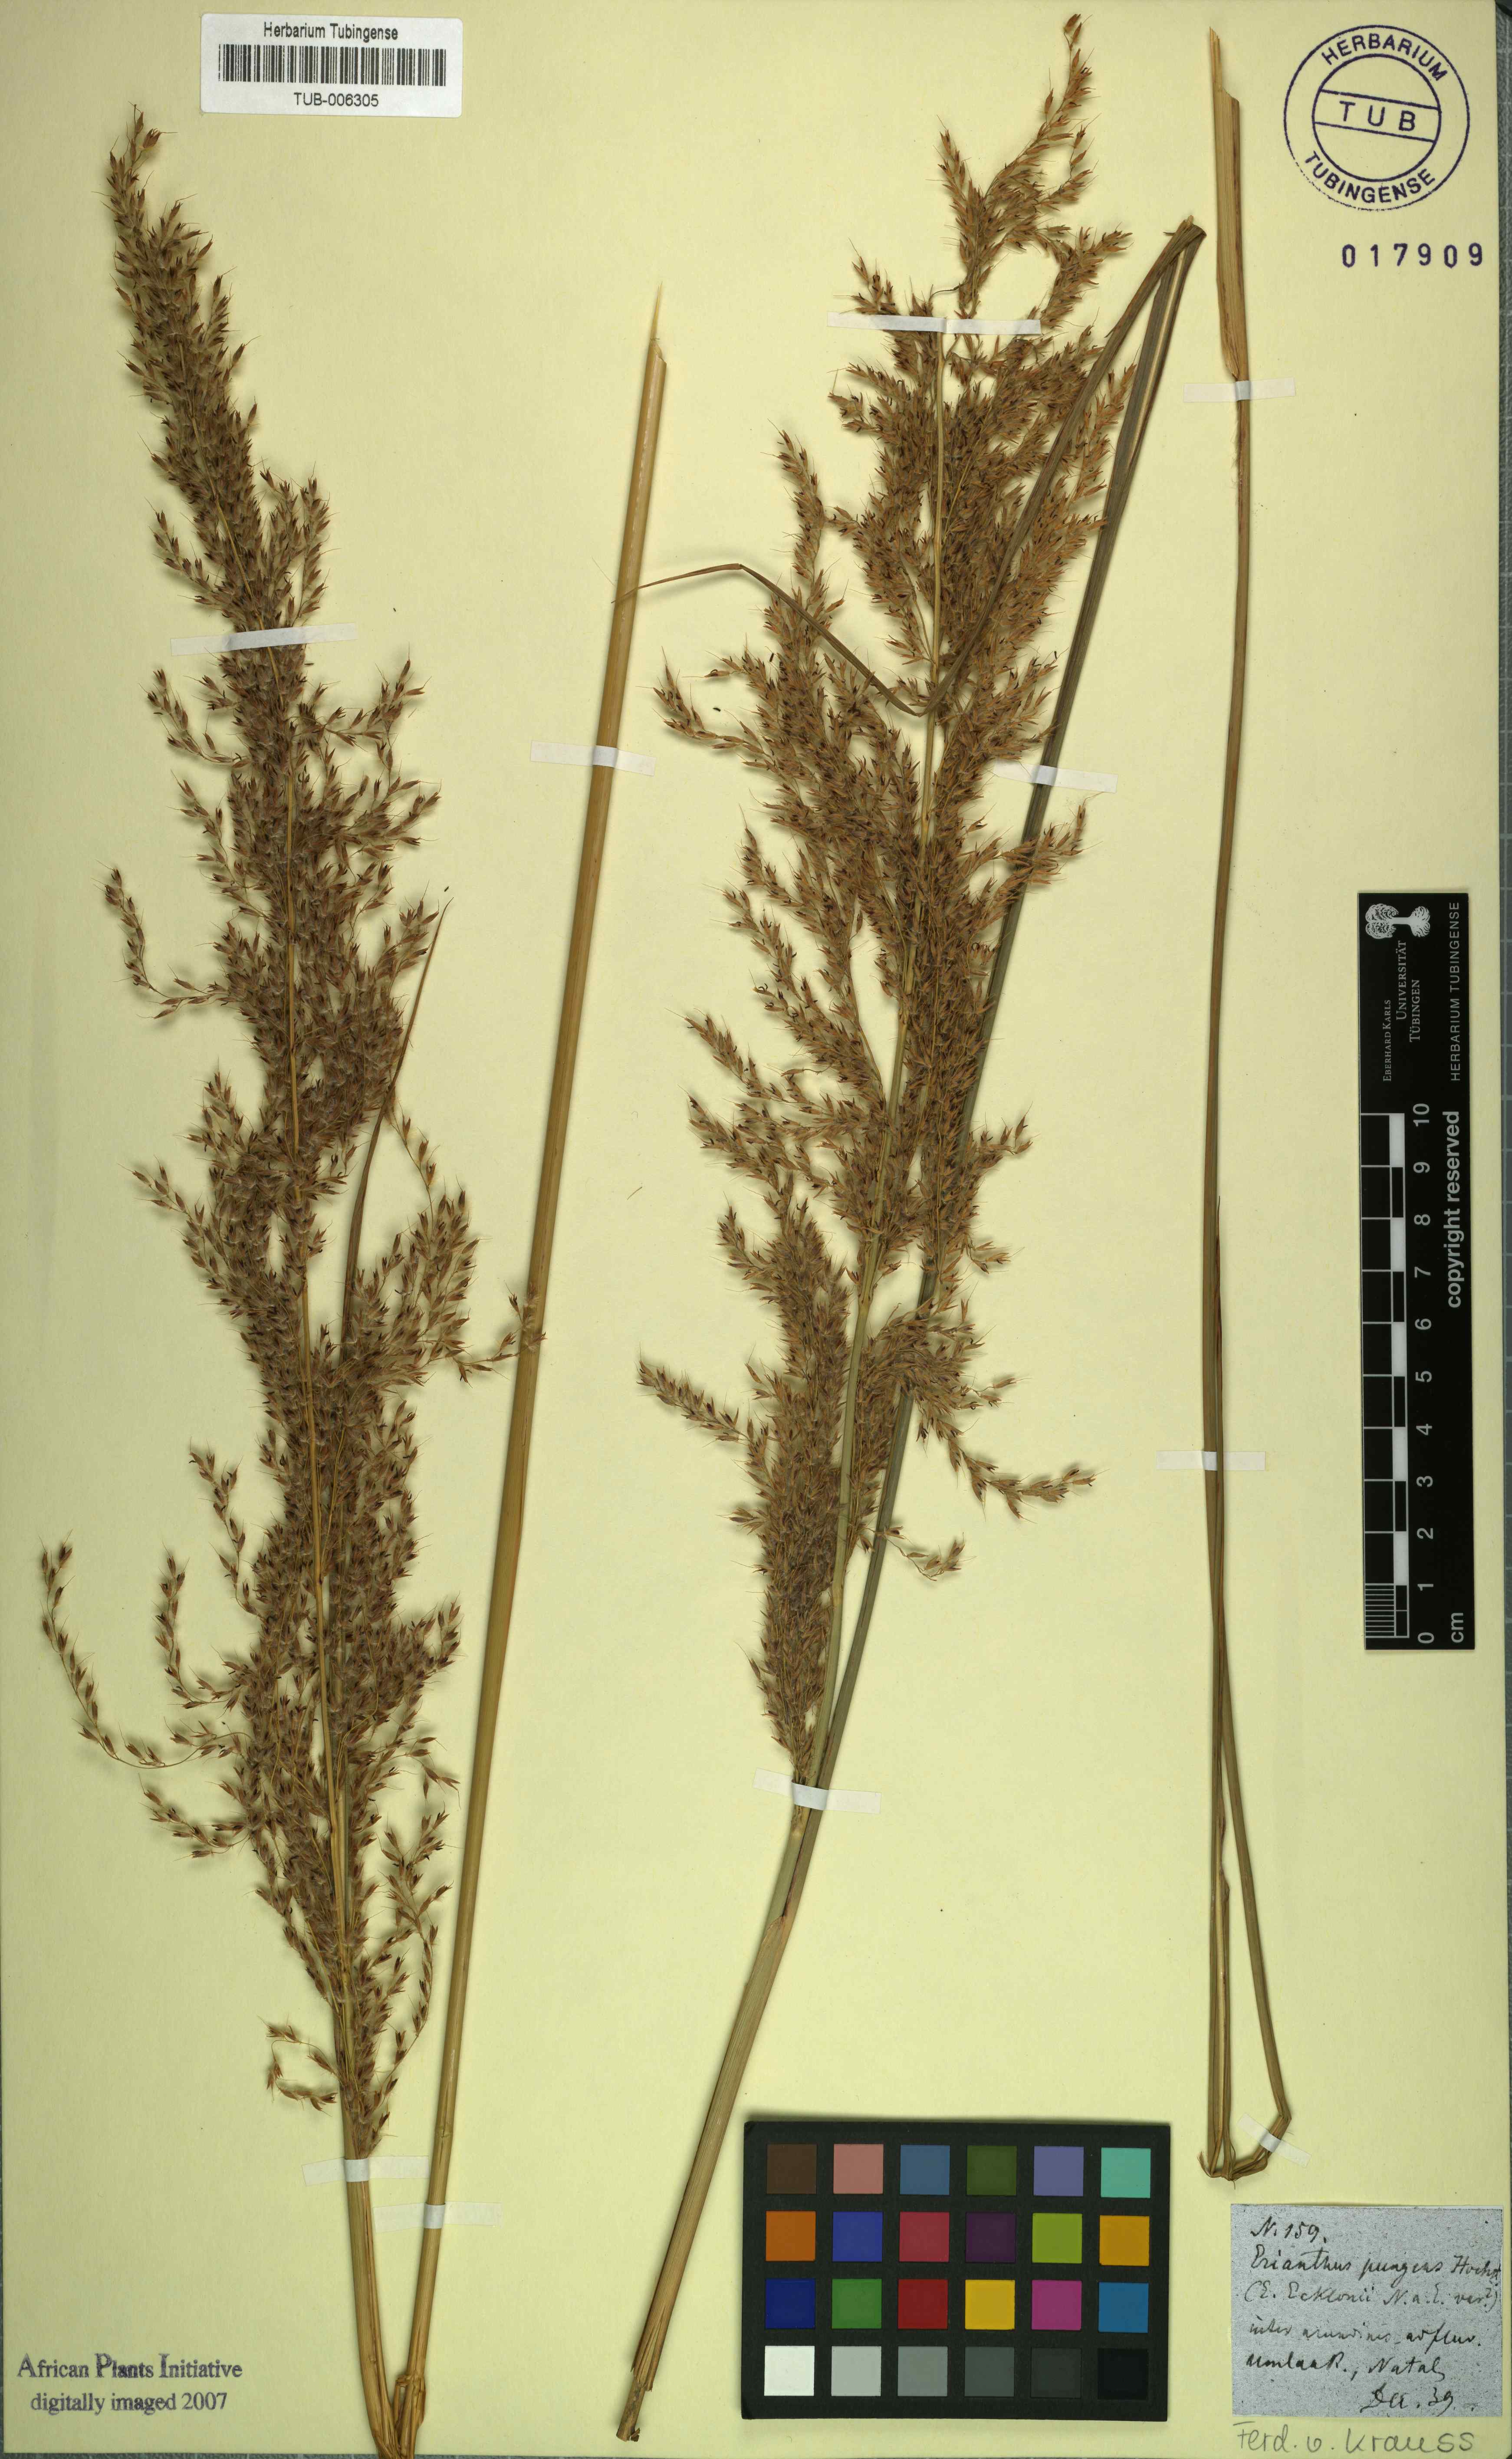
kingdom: Plantae
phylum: Tracheophyta
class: Liliopsida
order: Poales
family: Poaceae
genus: Miscanthus
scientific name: Miscanthus ecklonii
